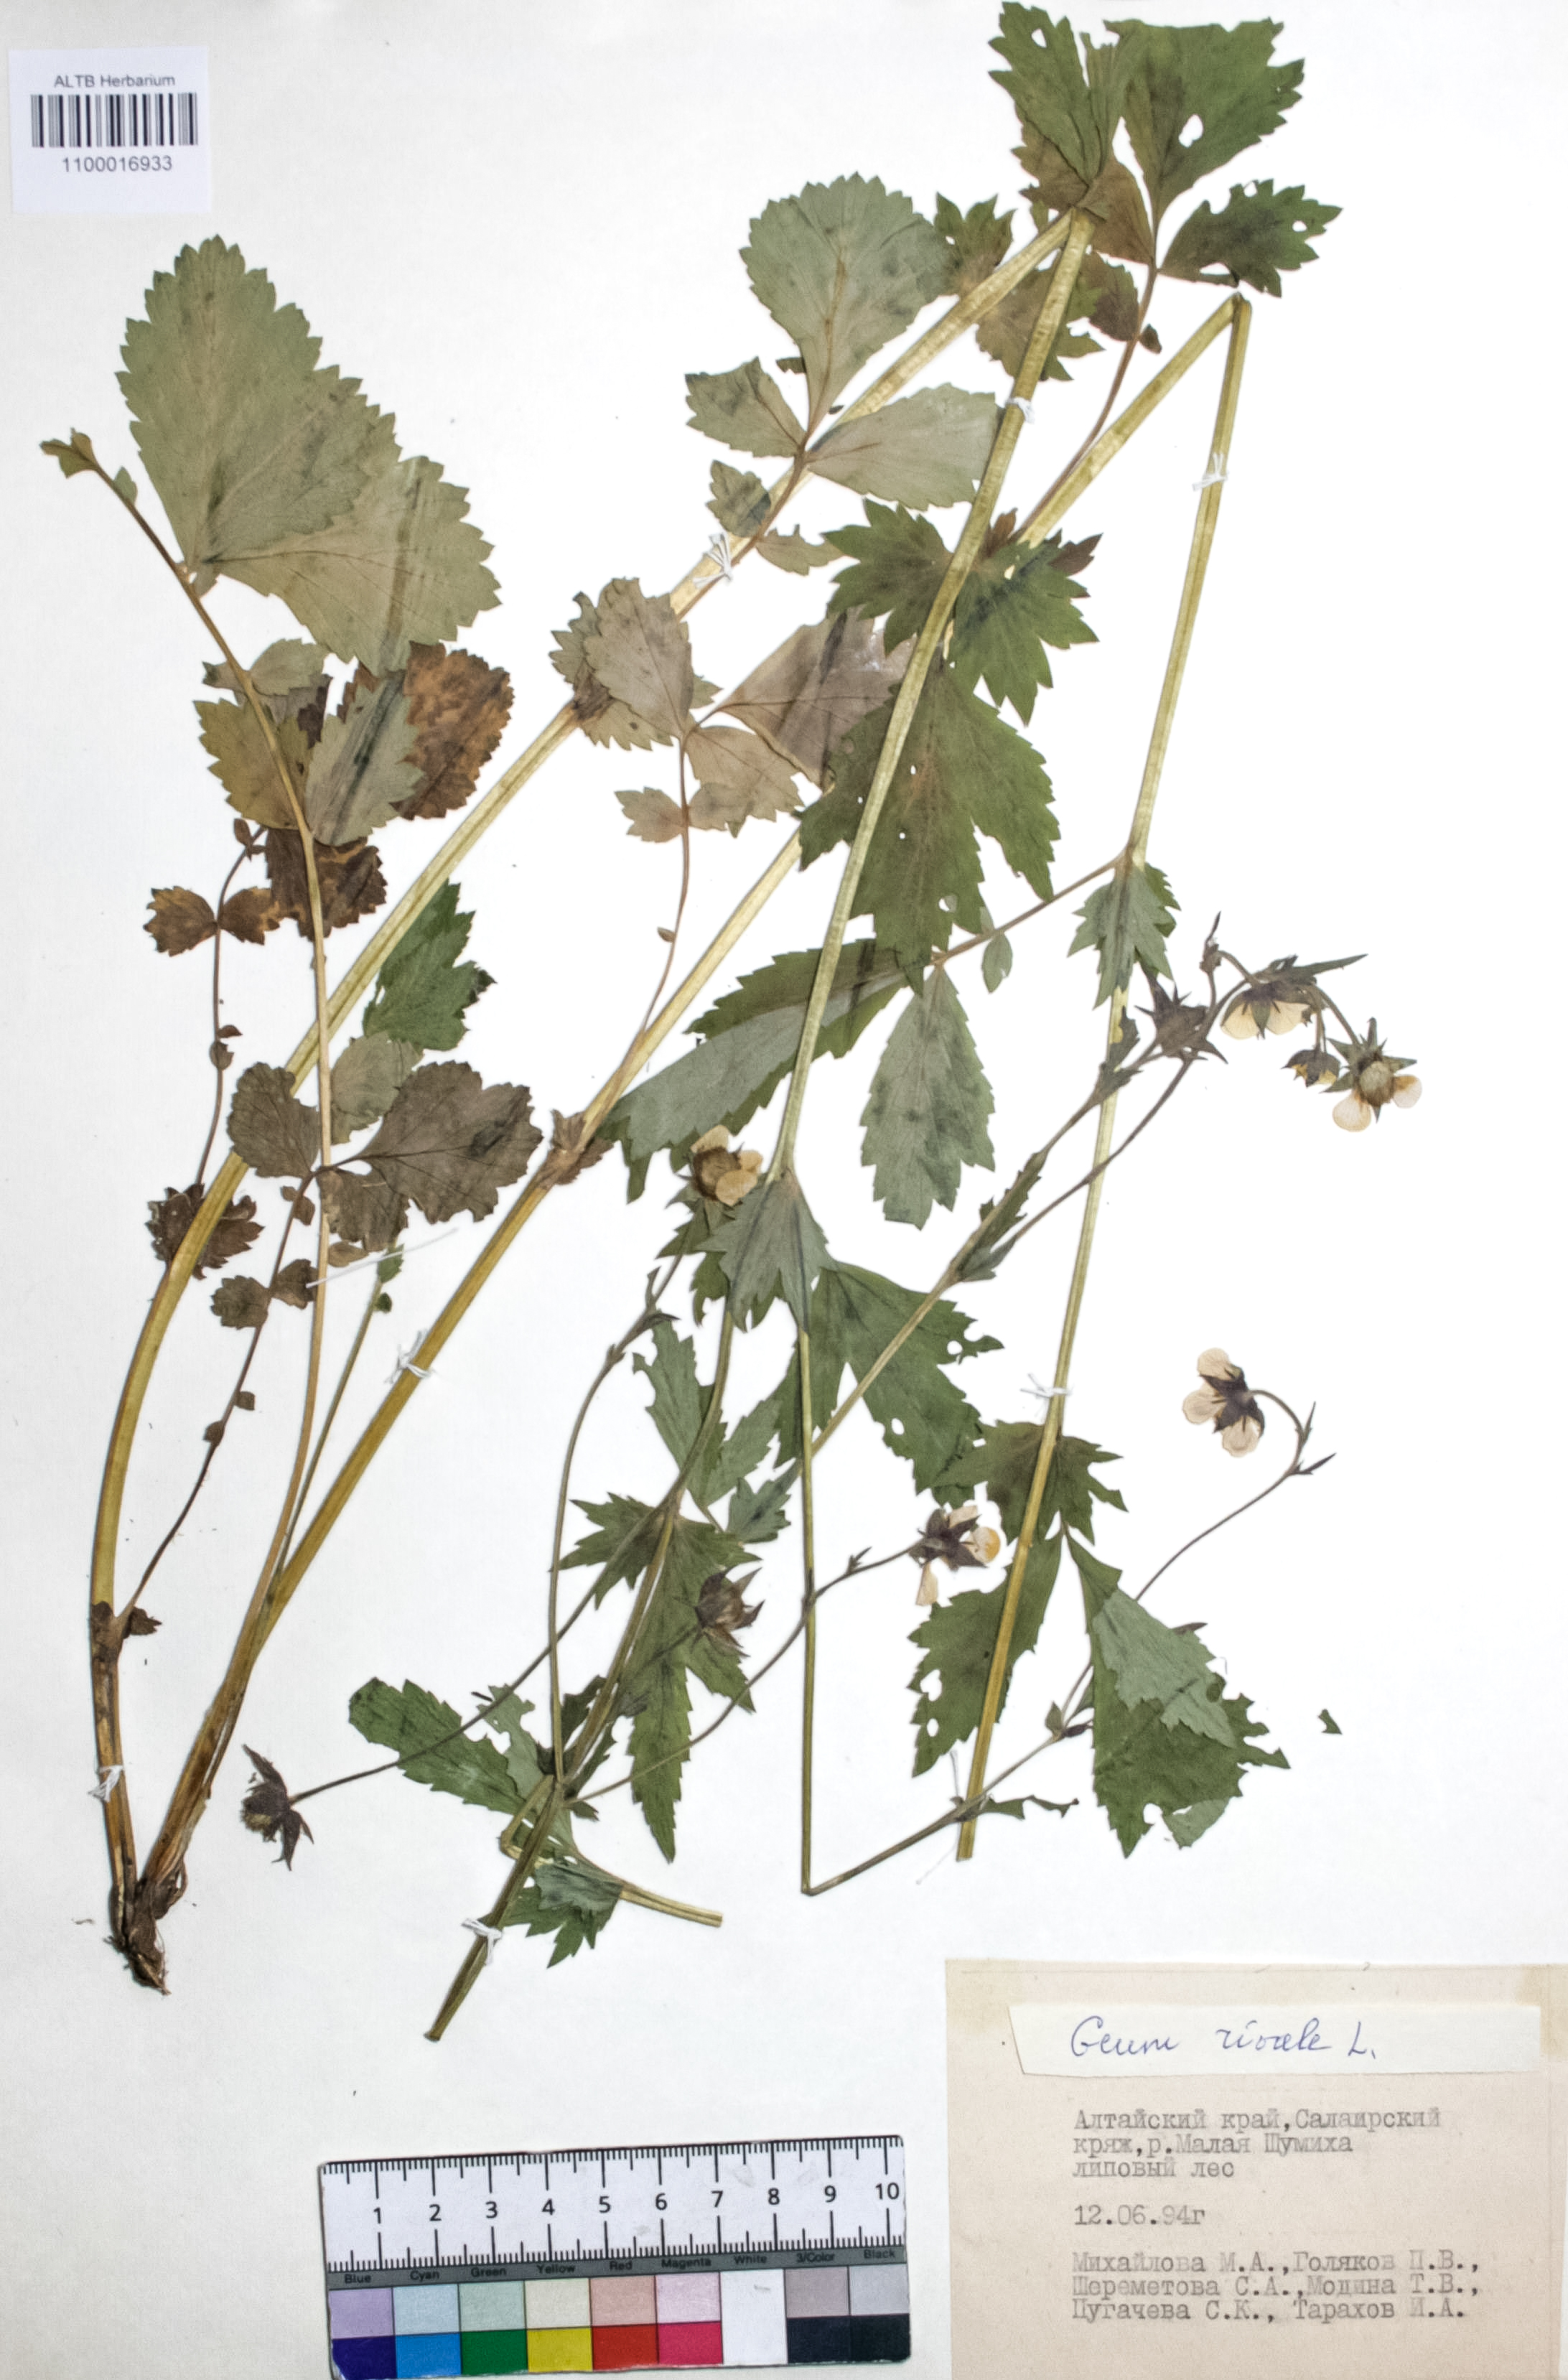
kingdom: Plantae
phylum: Tracheophyta
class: Magnoliopsida
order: Rosales
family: Rosaceae
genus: Geum
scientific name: Geum rivale
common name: Water avens
